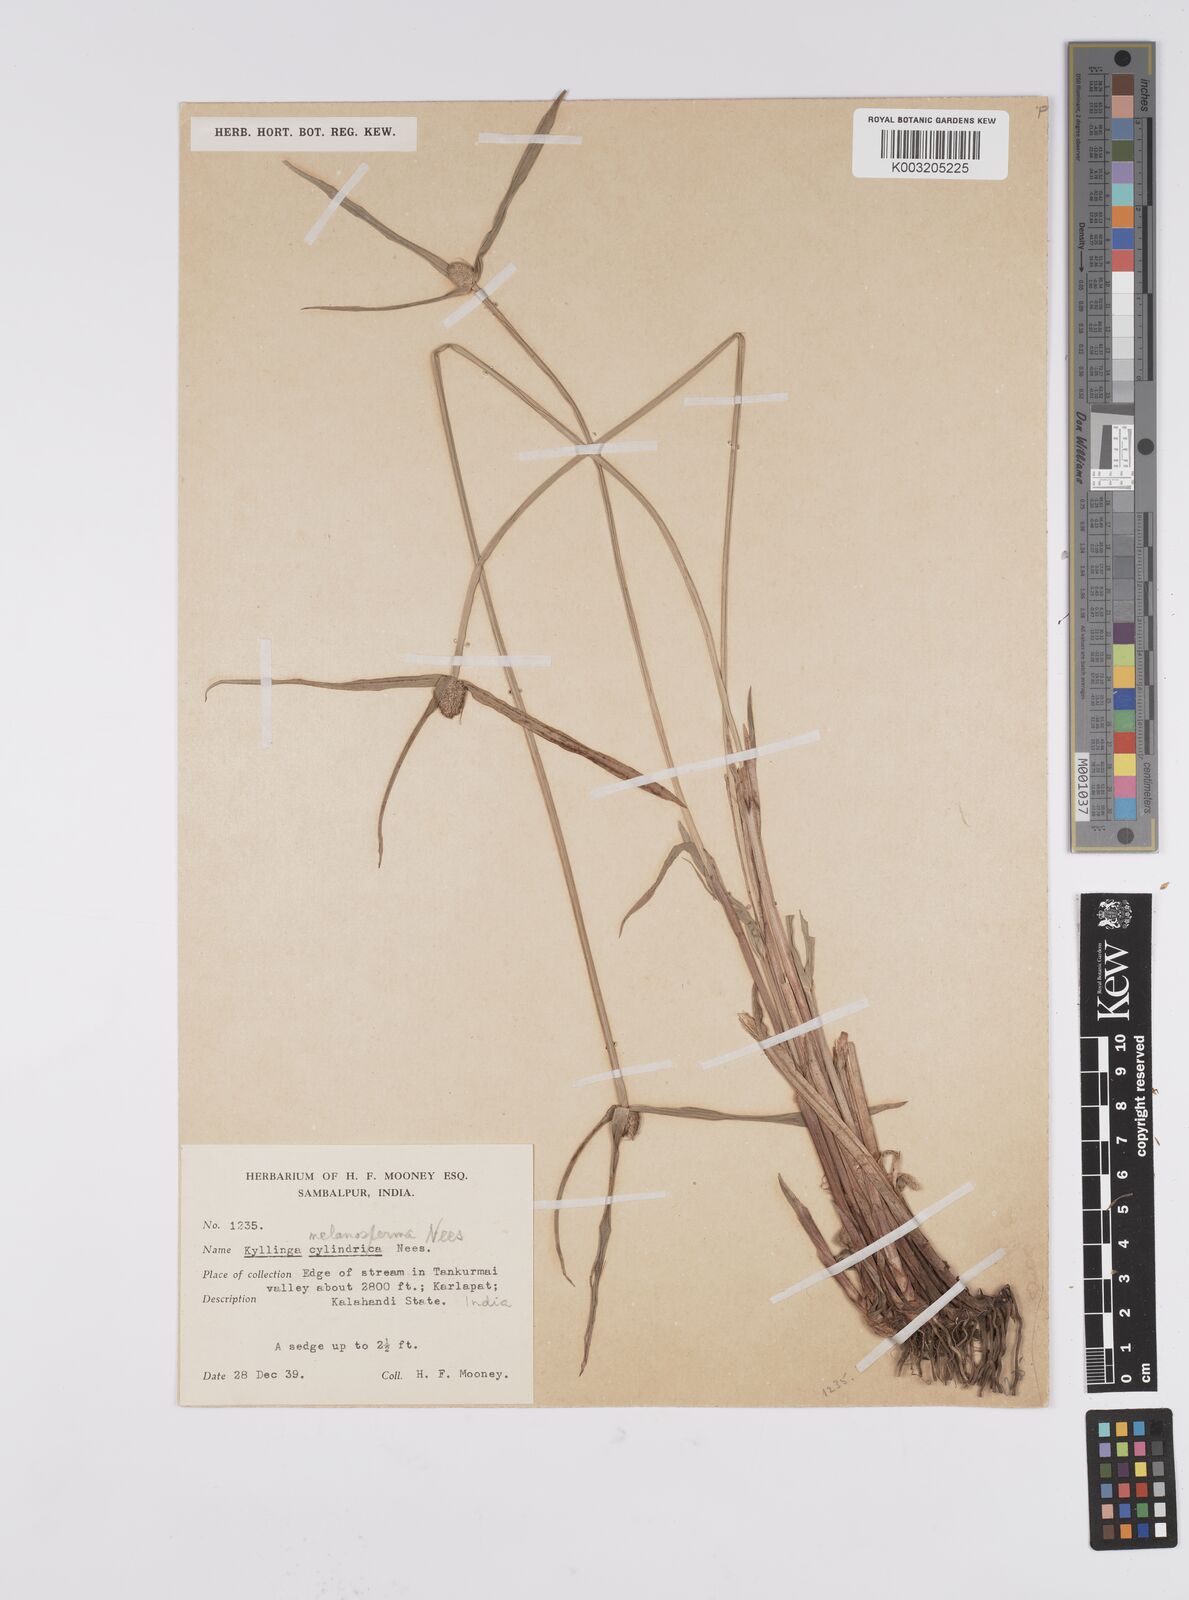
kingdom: Plantae
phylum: Tracheophyta
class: Liliopsida
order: Poales
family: Cyperaceae
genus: Cyperus
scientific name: Cyperus melanospermus
